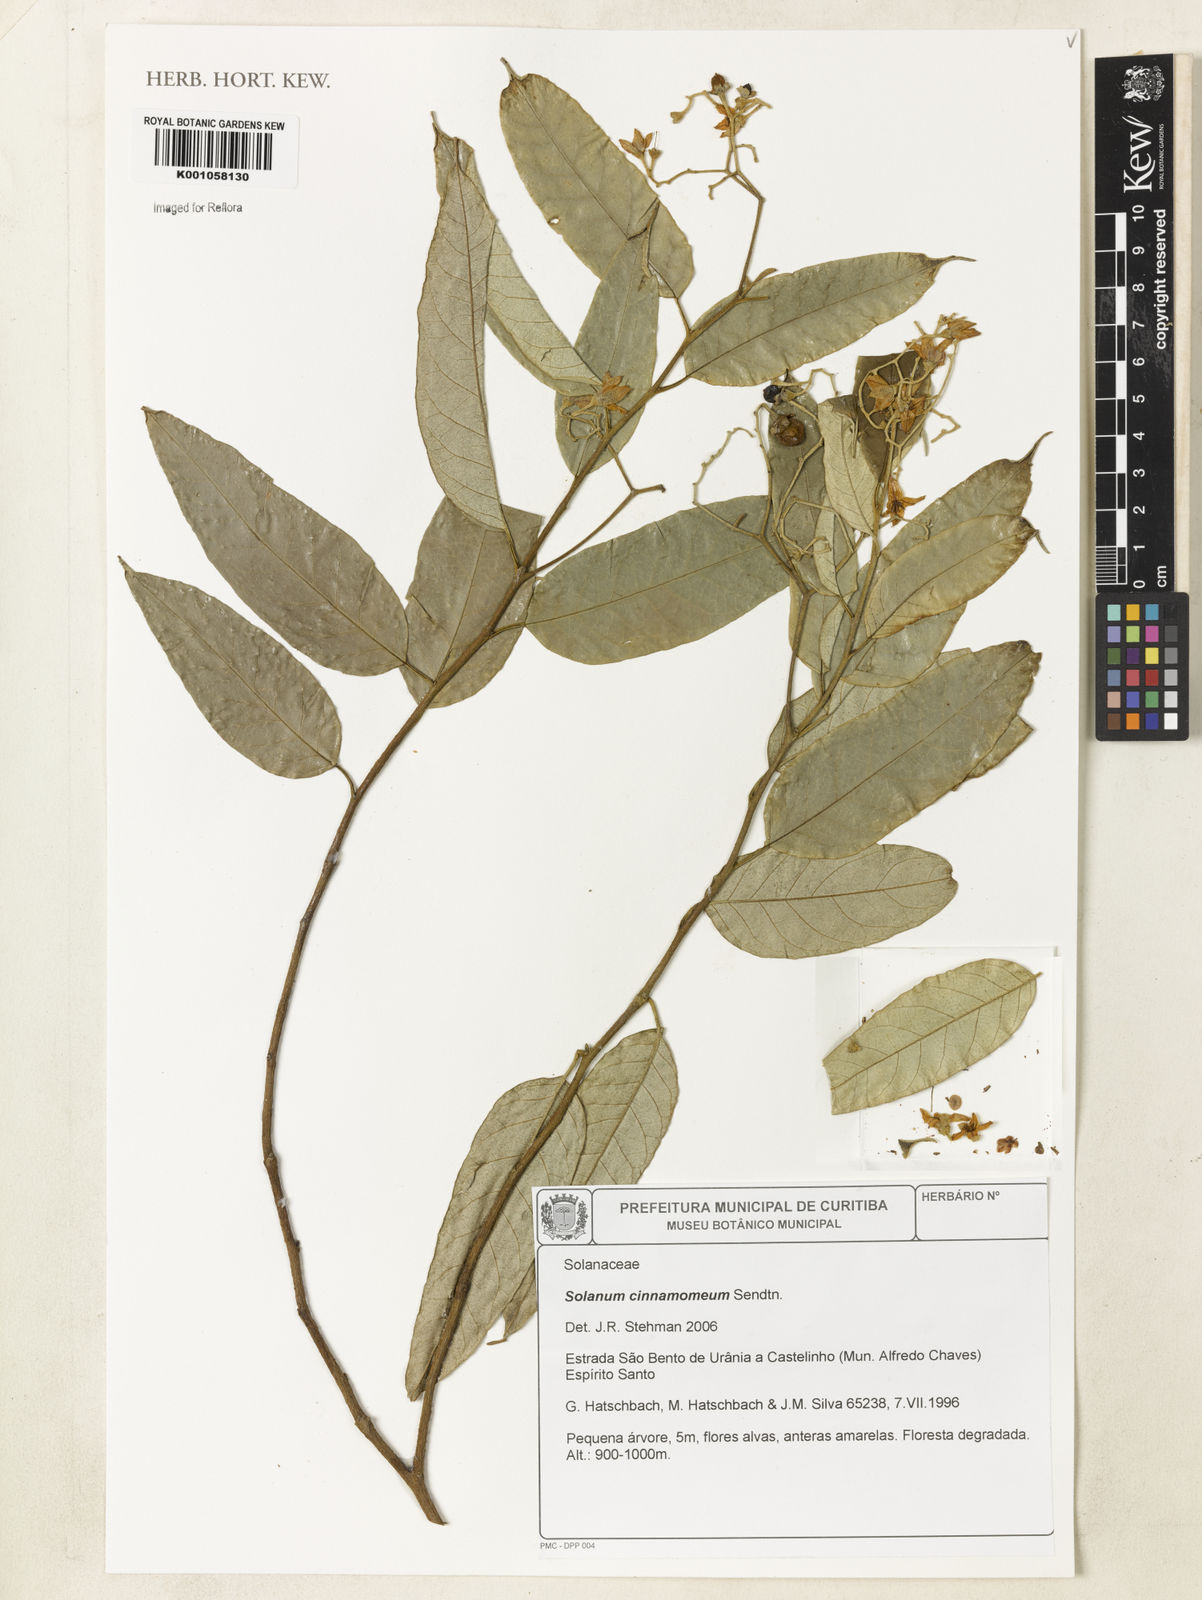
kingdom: Plantae
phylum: Tracheophyta
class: Magnoliopsida
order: Solanales
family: Solanaceae
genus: Solanum
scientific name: Solanum cinnamomeum
